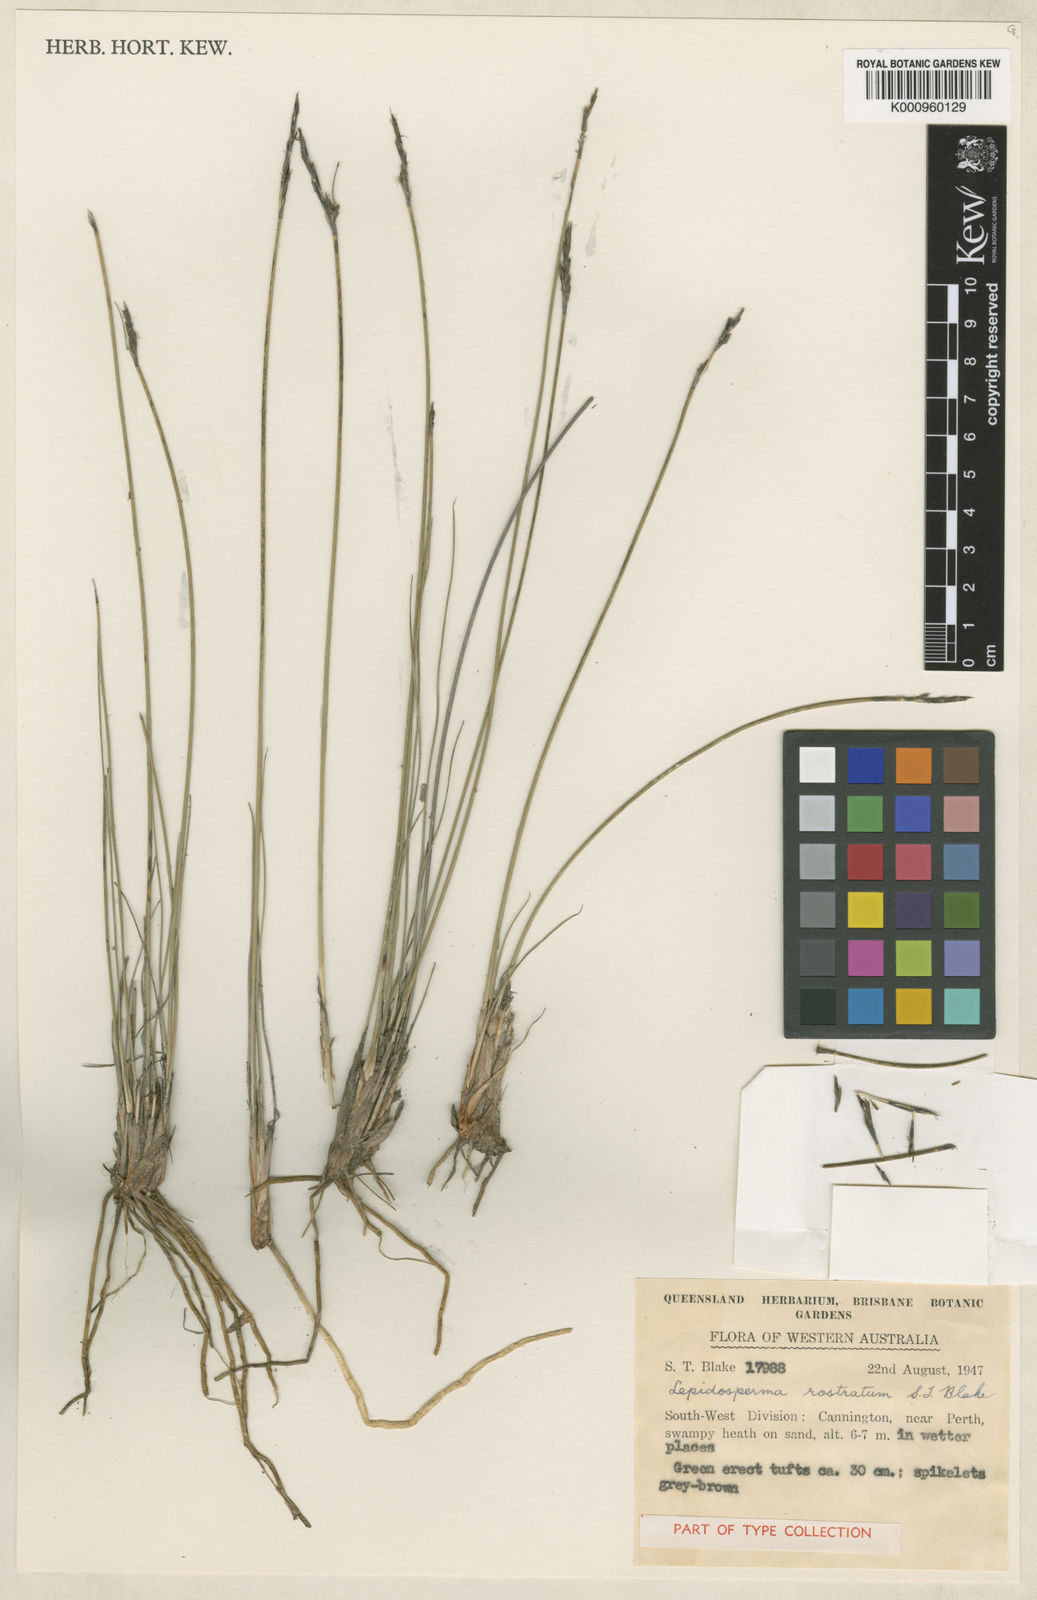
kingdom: Plantae
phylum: Tracheophyta
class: Liliopsida
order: Poales
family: Cyperaceae
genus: Lepidosperma
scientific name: Lepidosperma rostratum
